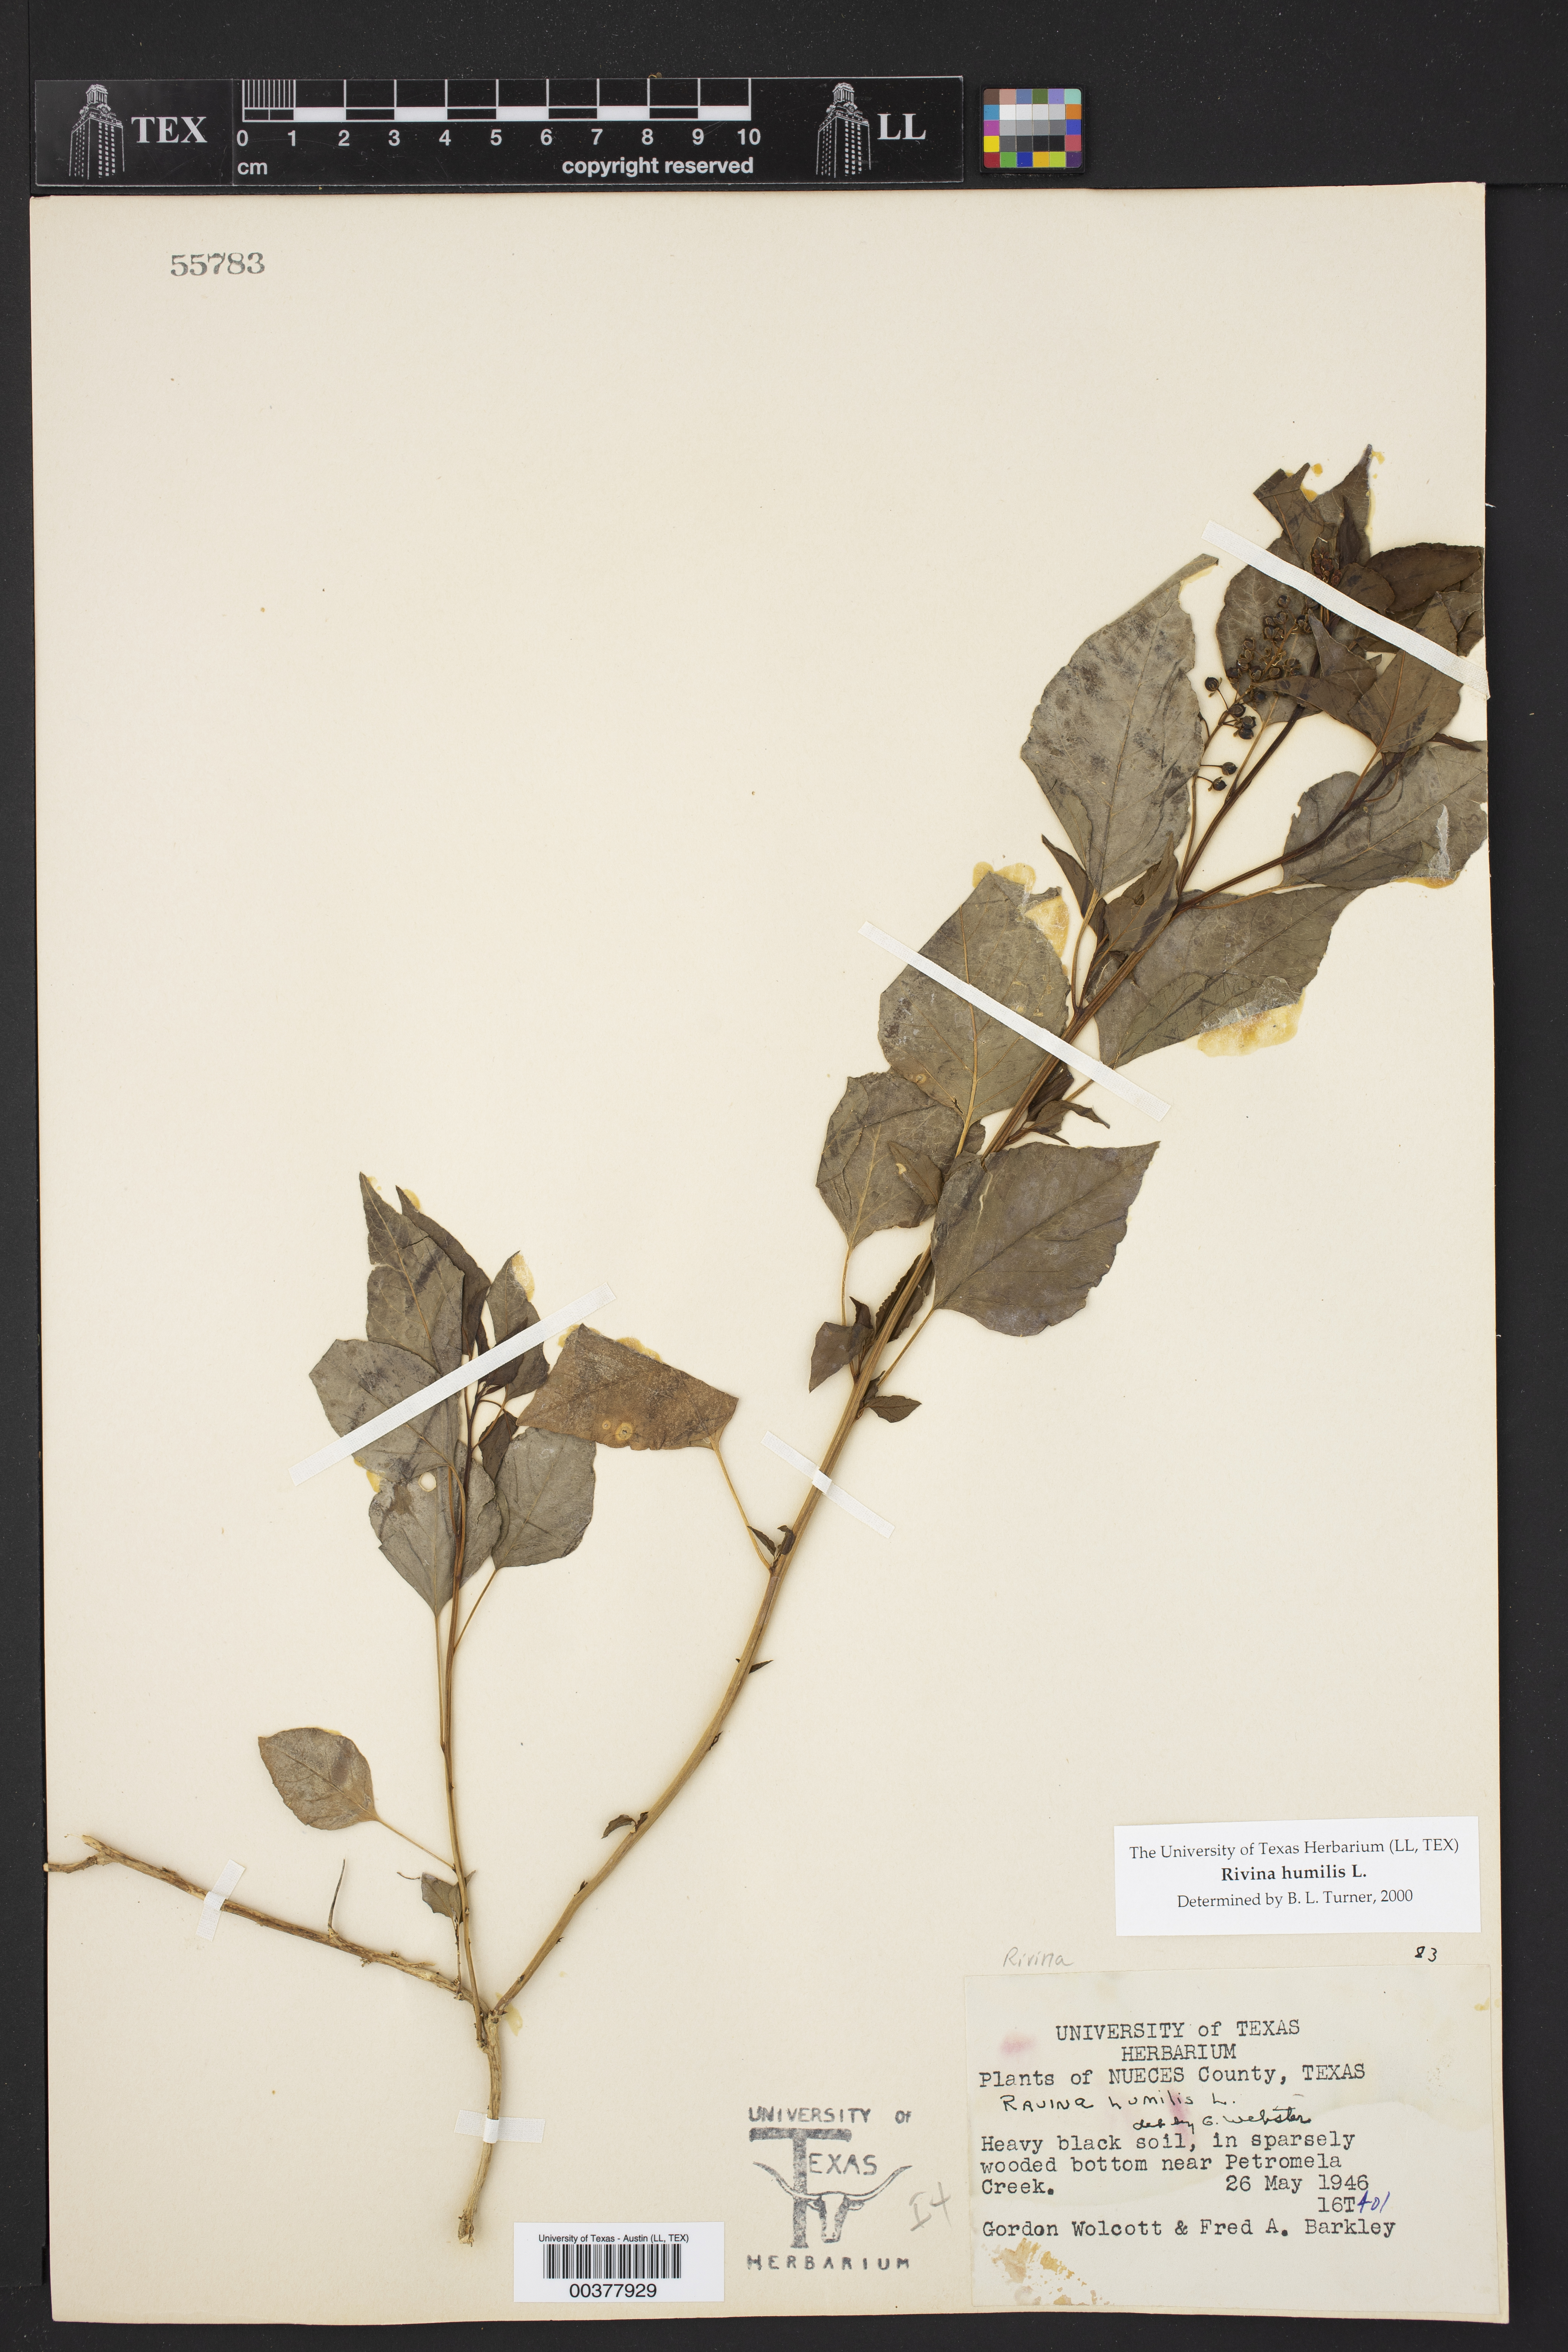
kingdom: Plantae
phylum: Tracheophyta
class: Magnoliopsida
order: Caryophyllales
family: Phytolaccaceae
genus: Rivina
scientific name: Rivina humilis
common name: Rougeplant
